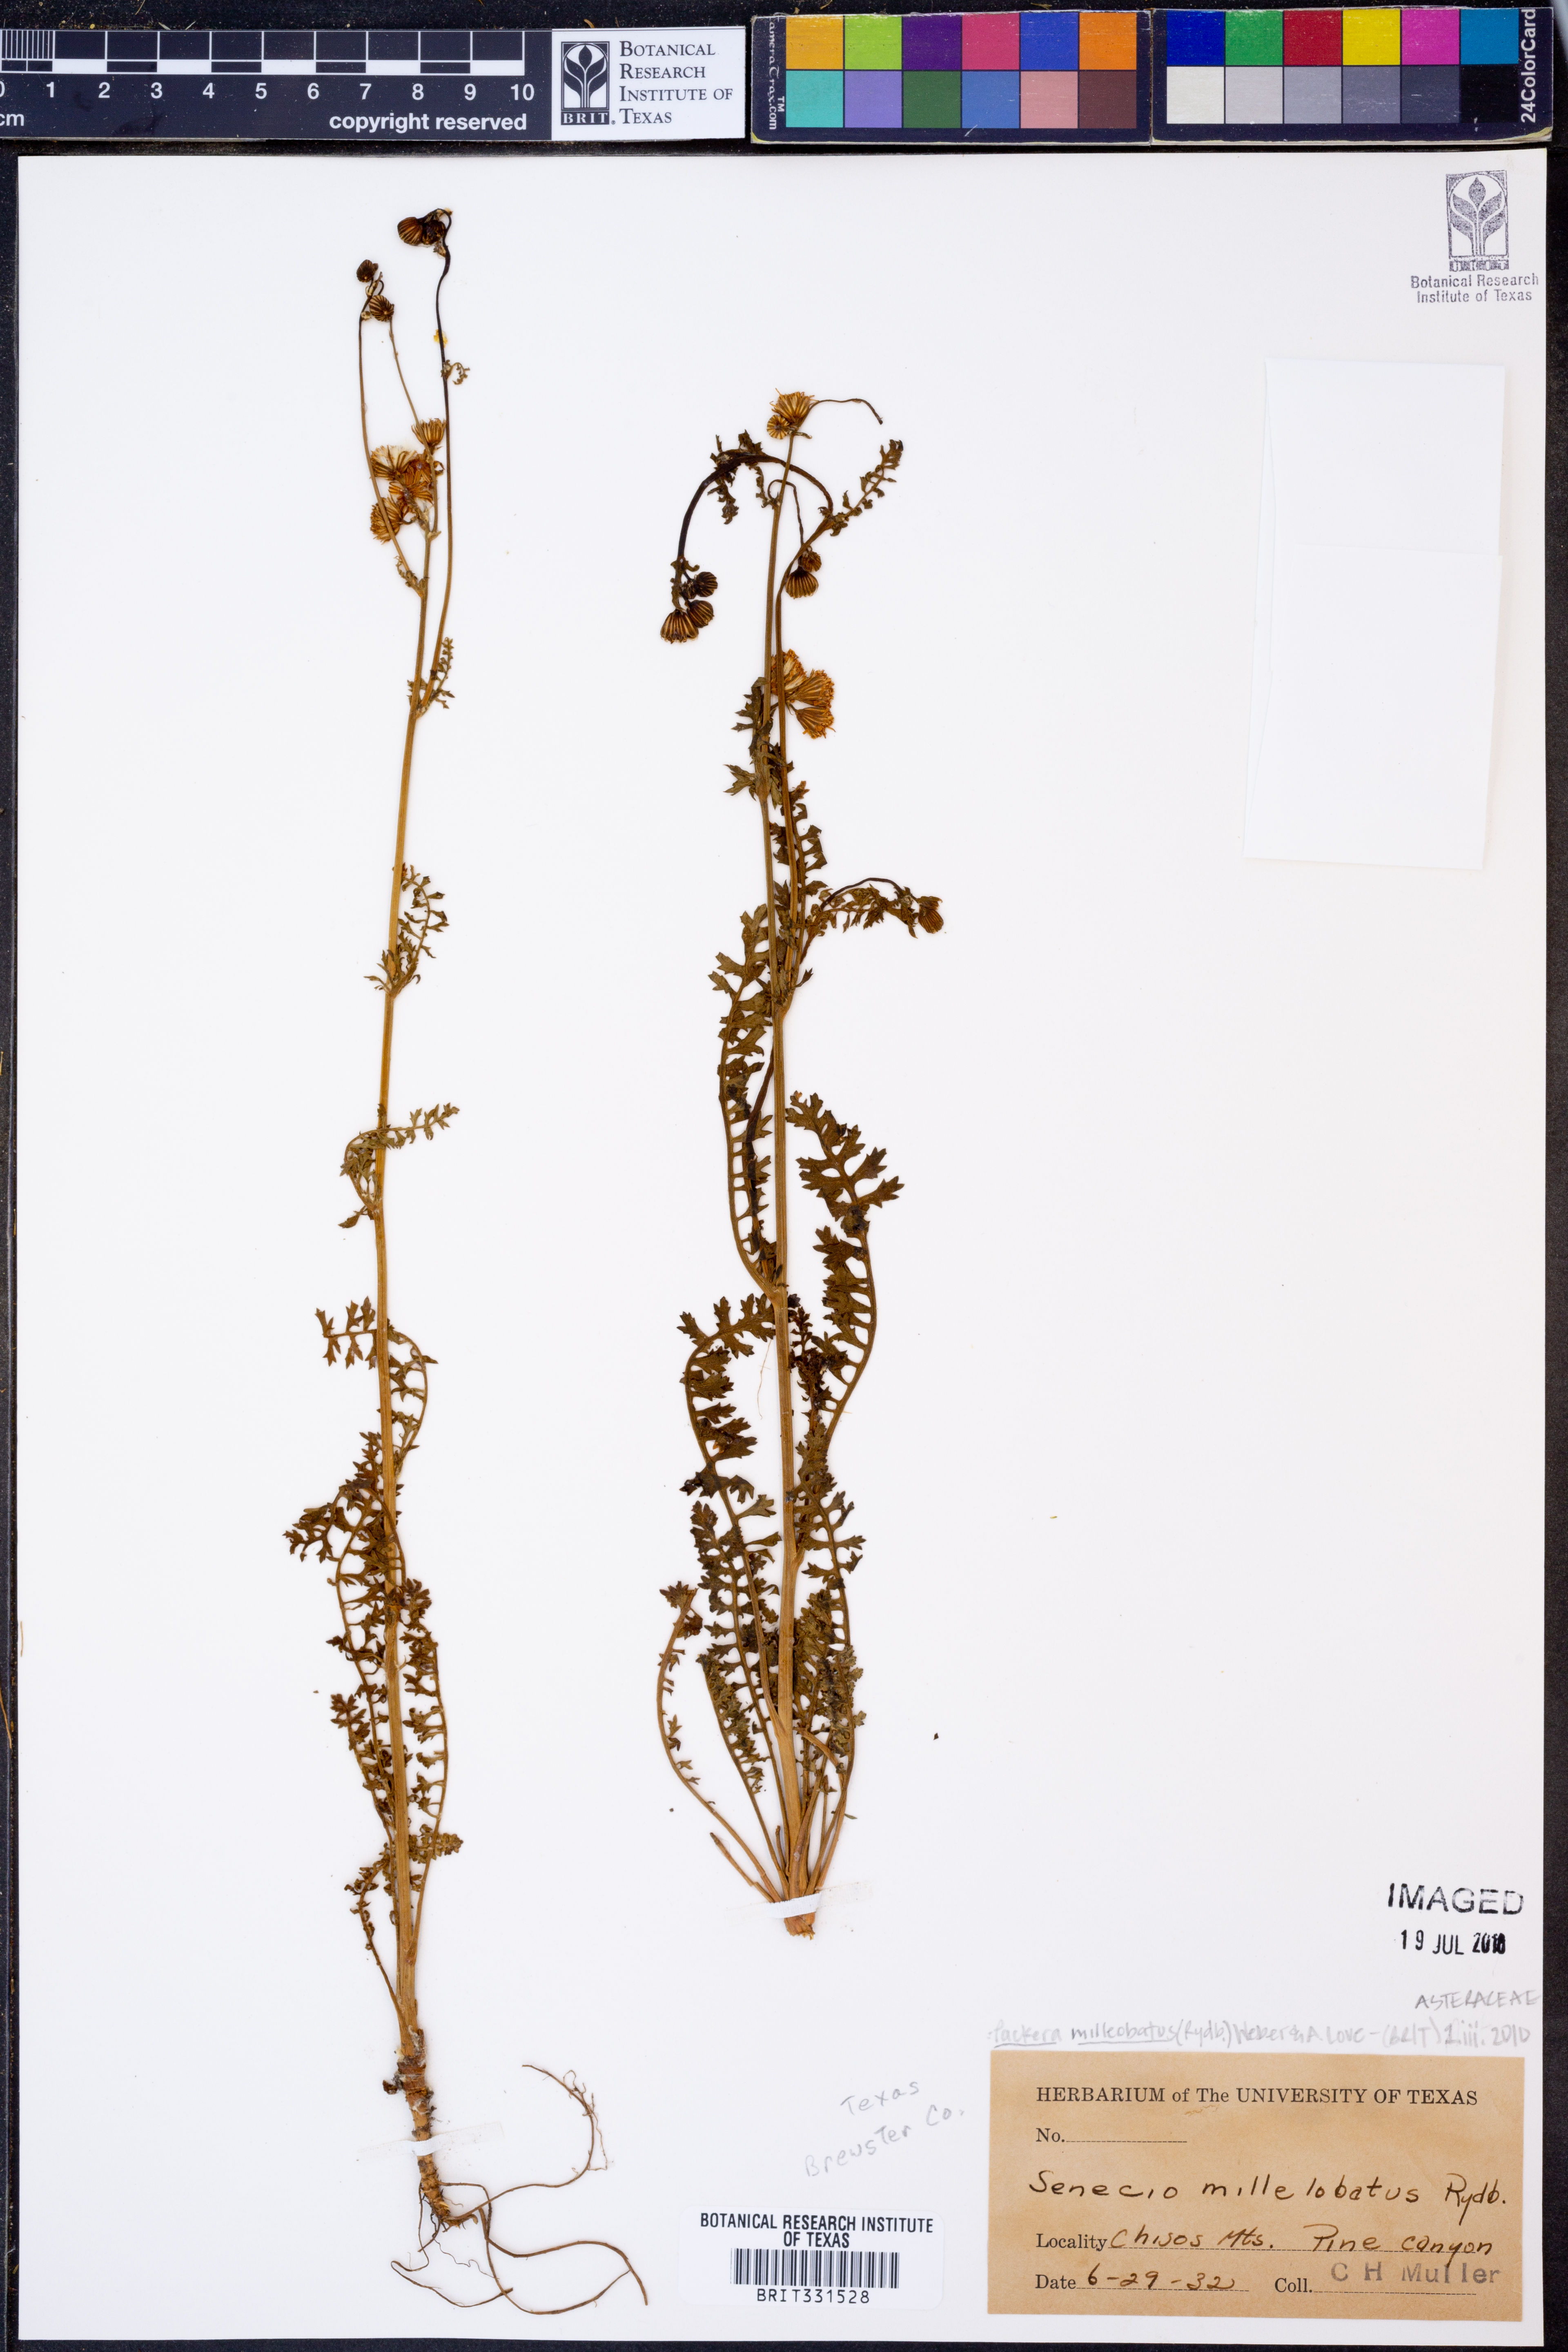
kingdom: Plantae
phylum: Tracheophyta
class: Magnoliopsida
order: Asterales
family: Asteraceae
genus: Packera
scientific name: Packera millelobata
